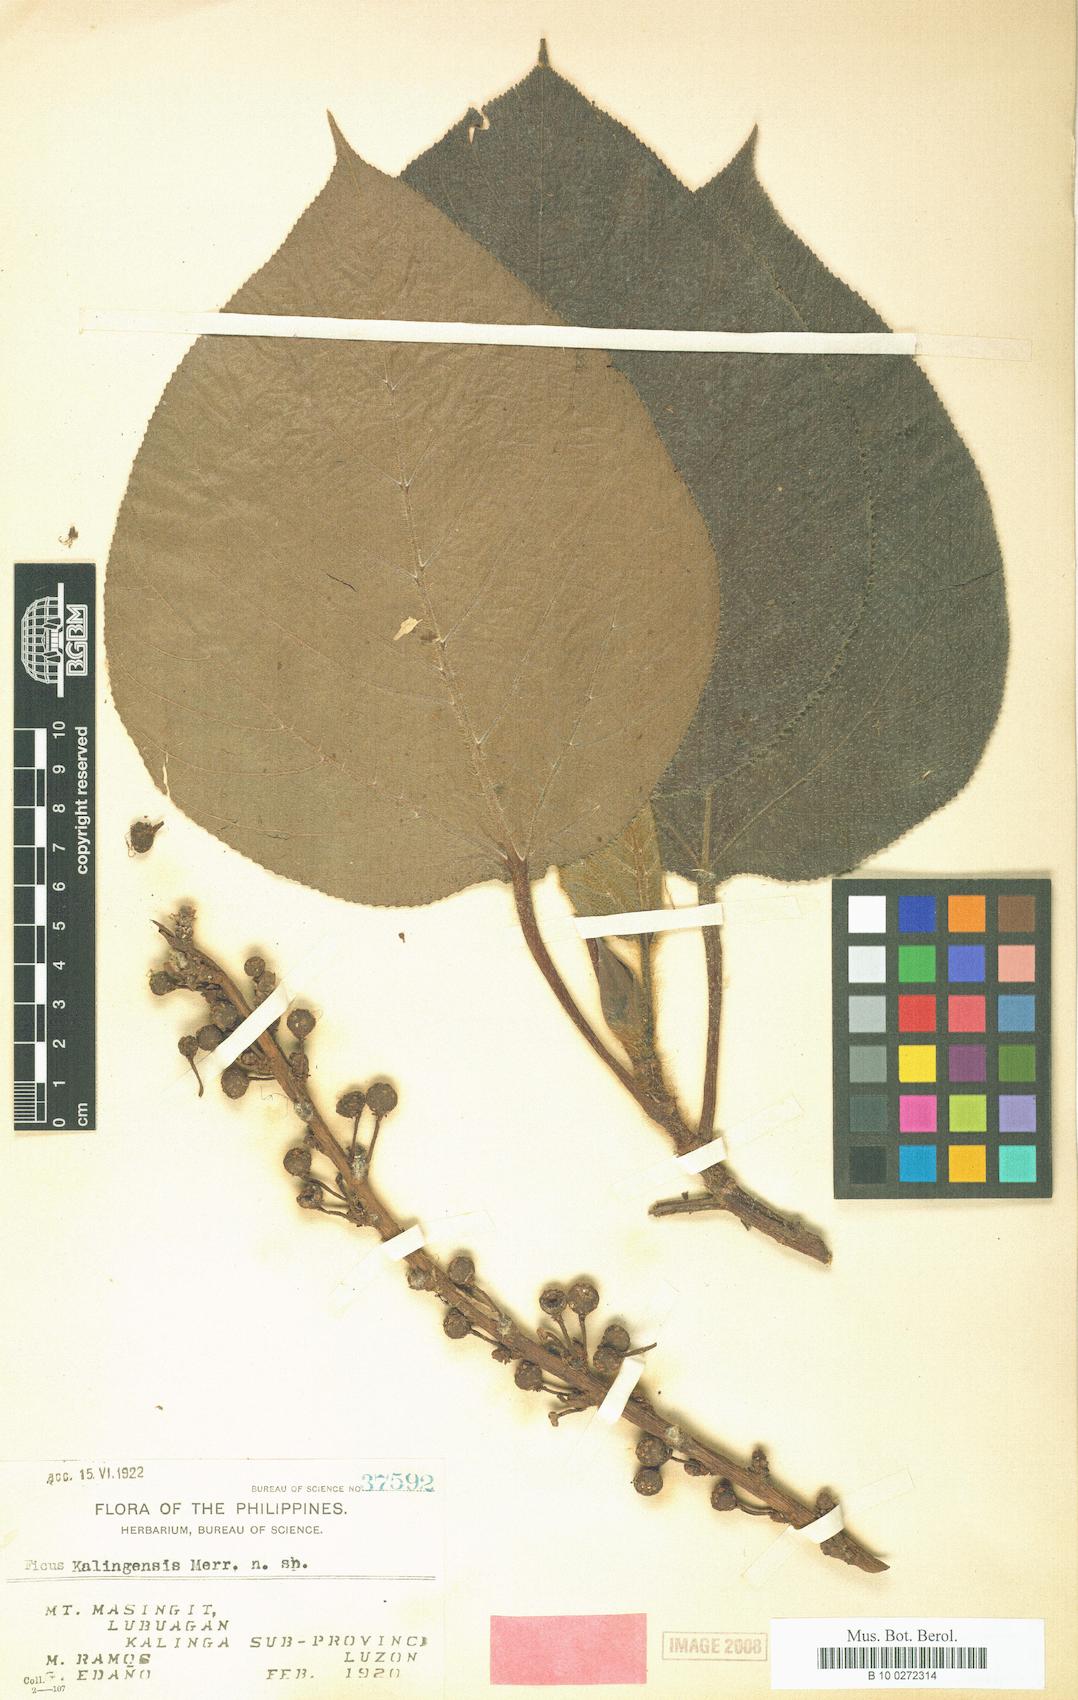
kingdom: Plantae
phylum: Tracheophyta
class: Magnoliopsida
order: Rosales
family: Moraceae
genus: Ficus
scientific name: Ficus pungens
